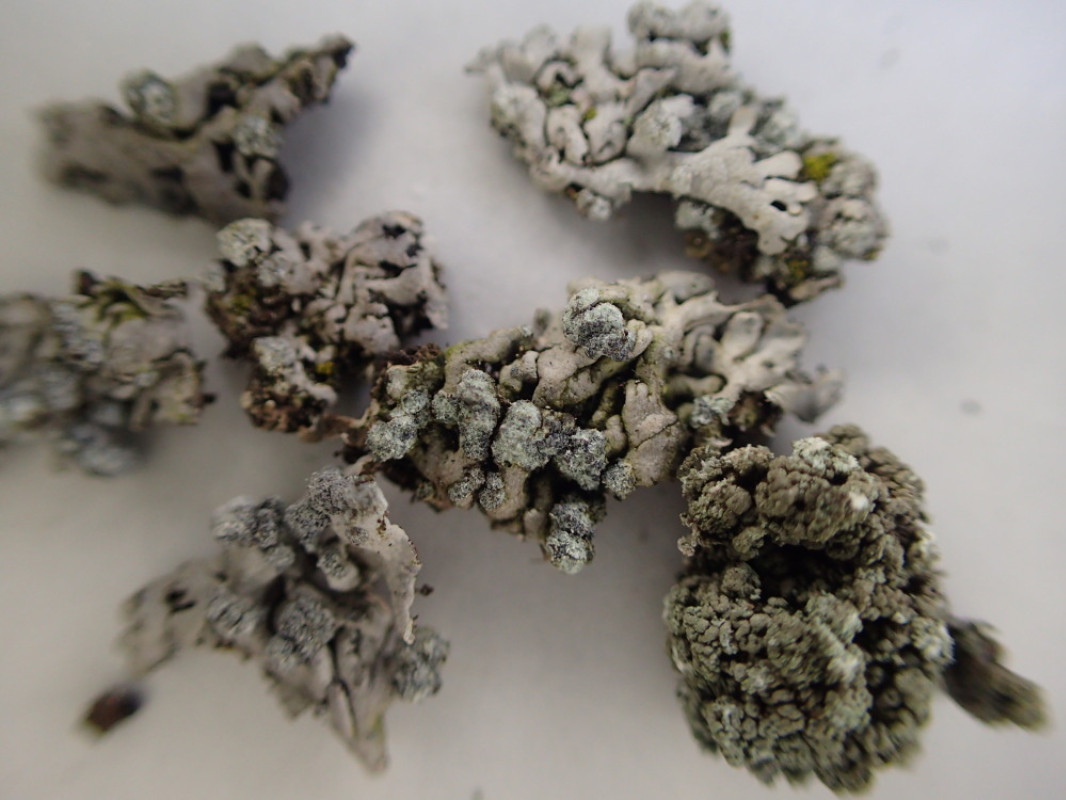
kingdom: Fungi
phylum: Ascomycota
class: Lecanoromycetes
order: Caliciales
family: Physciaceae
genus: Physcia
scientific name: Physcia caesia
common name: blågrå rosetlav
